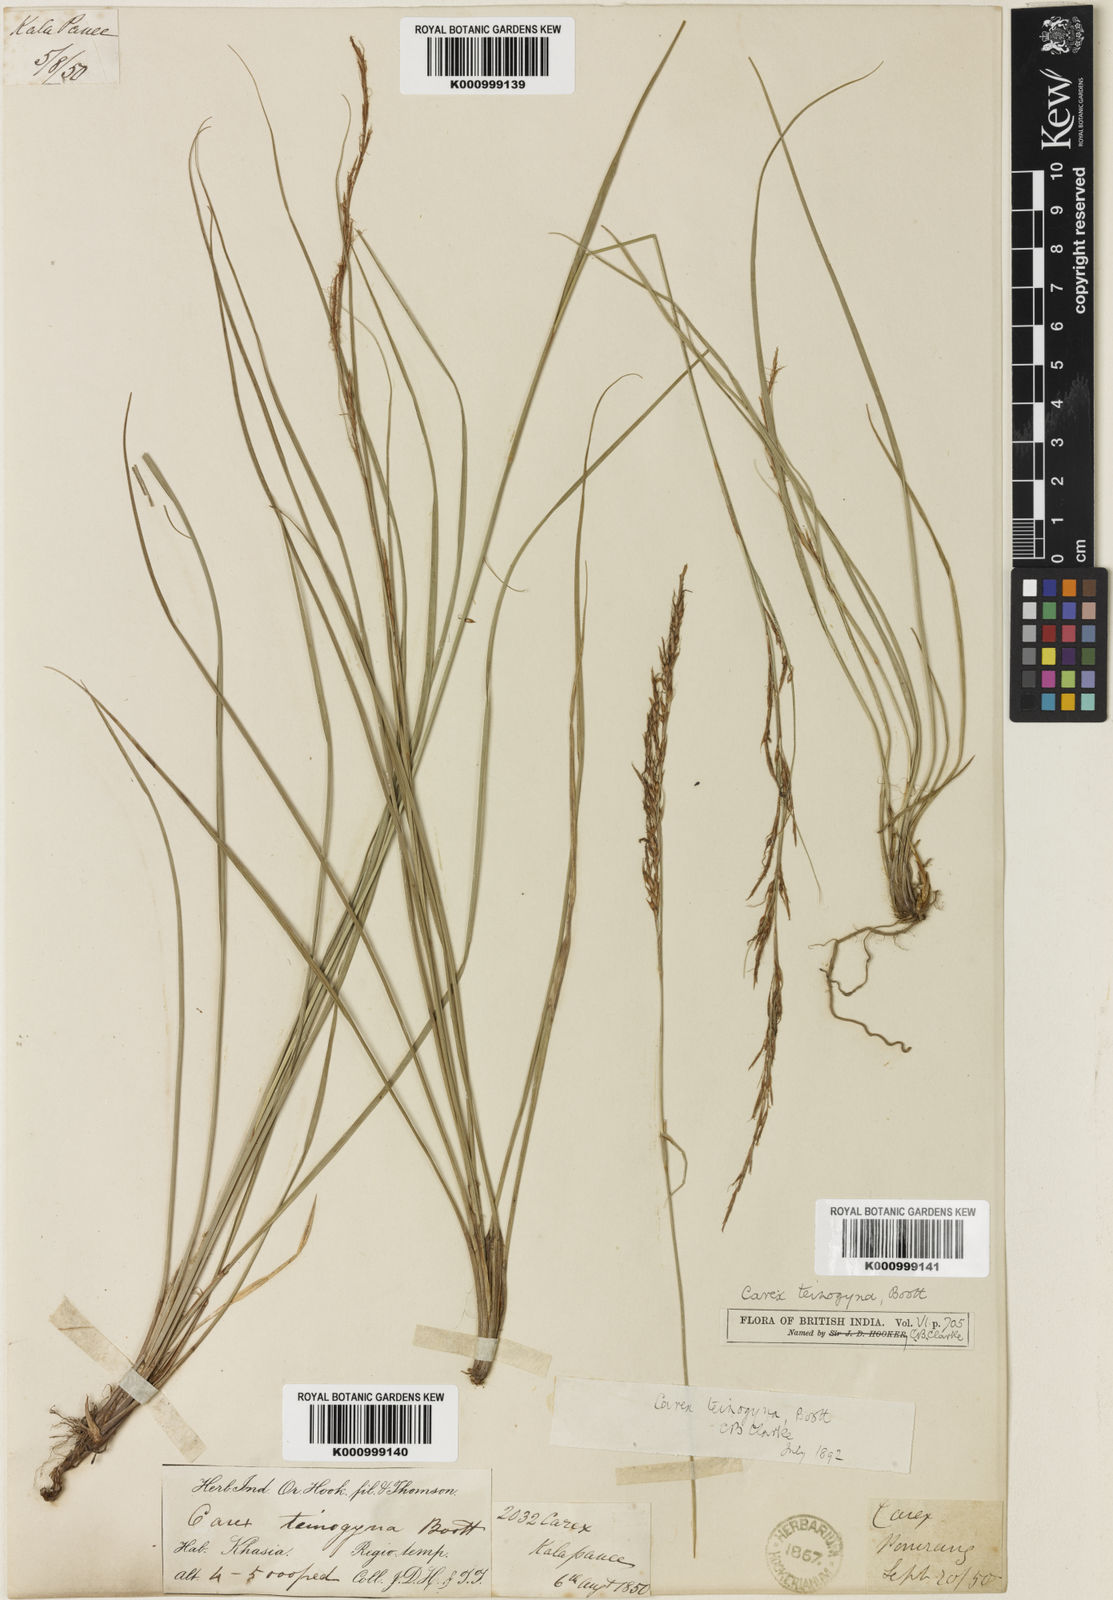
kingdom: Plantae
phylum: Tracheophyta
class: Liliopsida
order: Poales
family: Cyperaceae
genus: Carex
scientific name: Carex teinogyna
